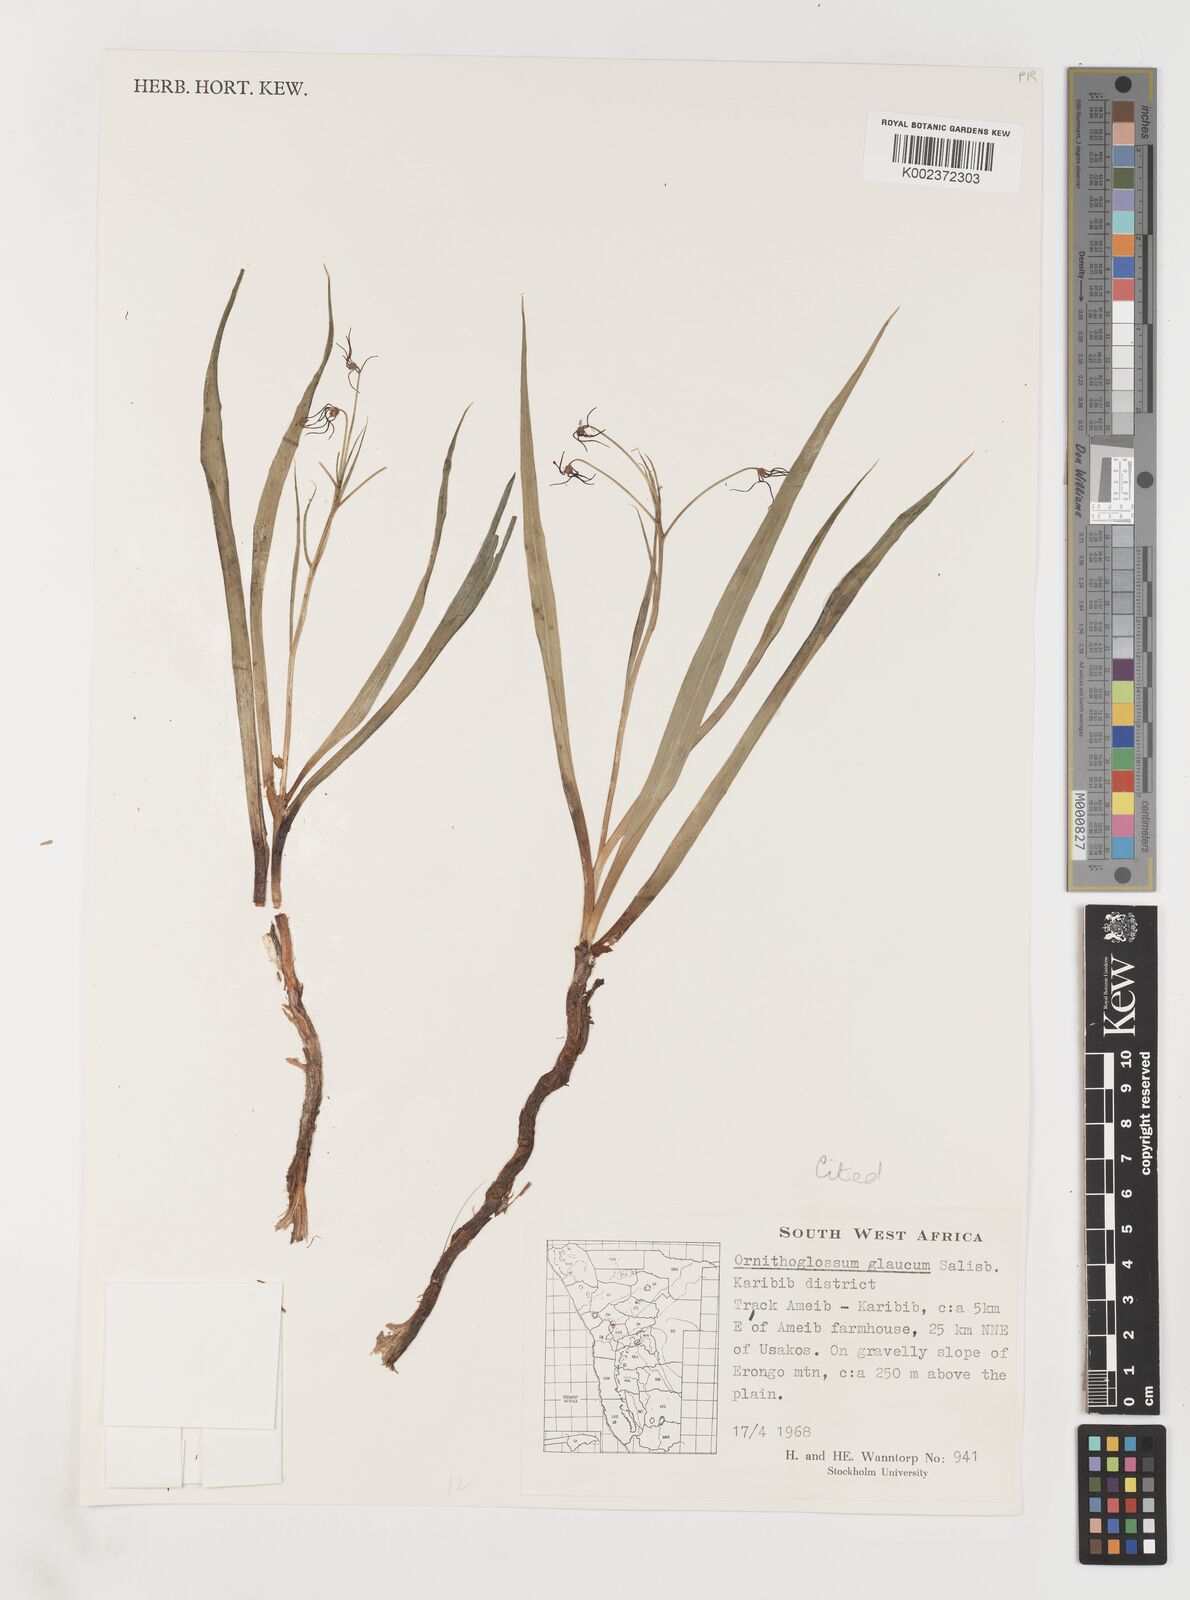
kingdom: Plantae
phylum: Tracheophyta
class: Liliopsida
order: Liliales
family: Colchicaceae
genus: Ornithoglossum
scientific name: Ornithoglossum vulgare
